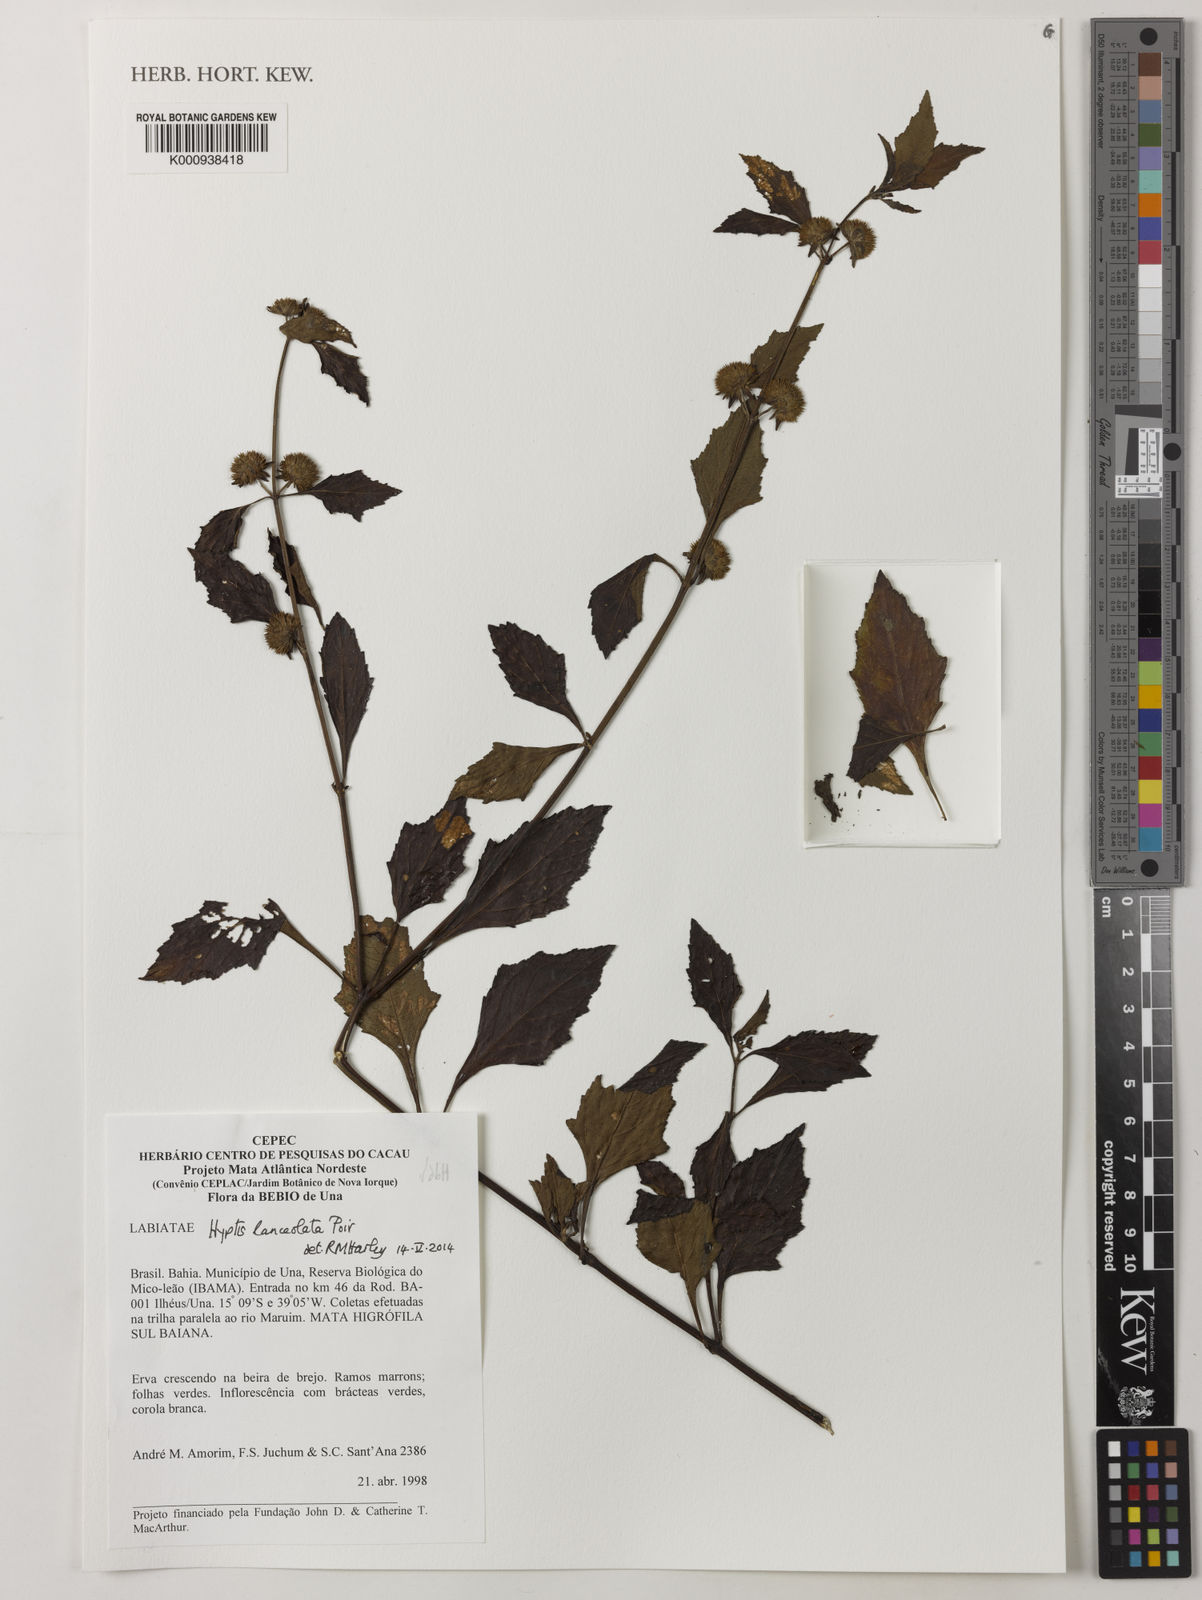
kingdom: Plantae
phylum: Tracheophyta
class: Magnoliopsida
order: Lamiales
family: Lamiaceae
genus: Hyptis
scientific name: Hyptis lanceolata
